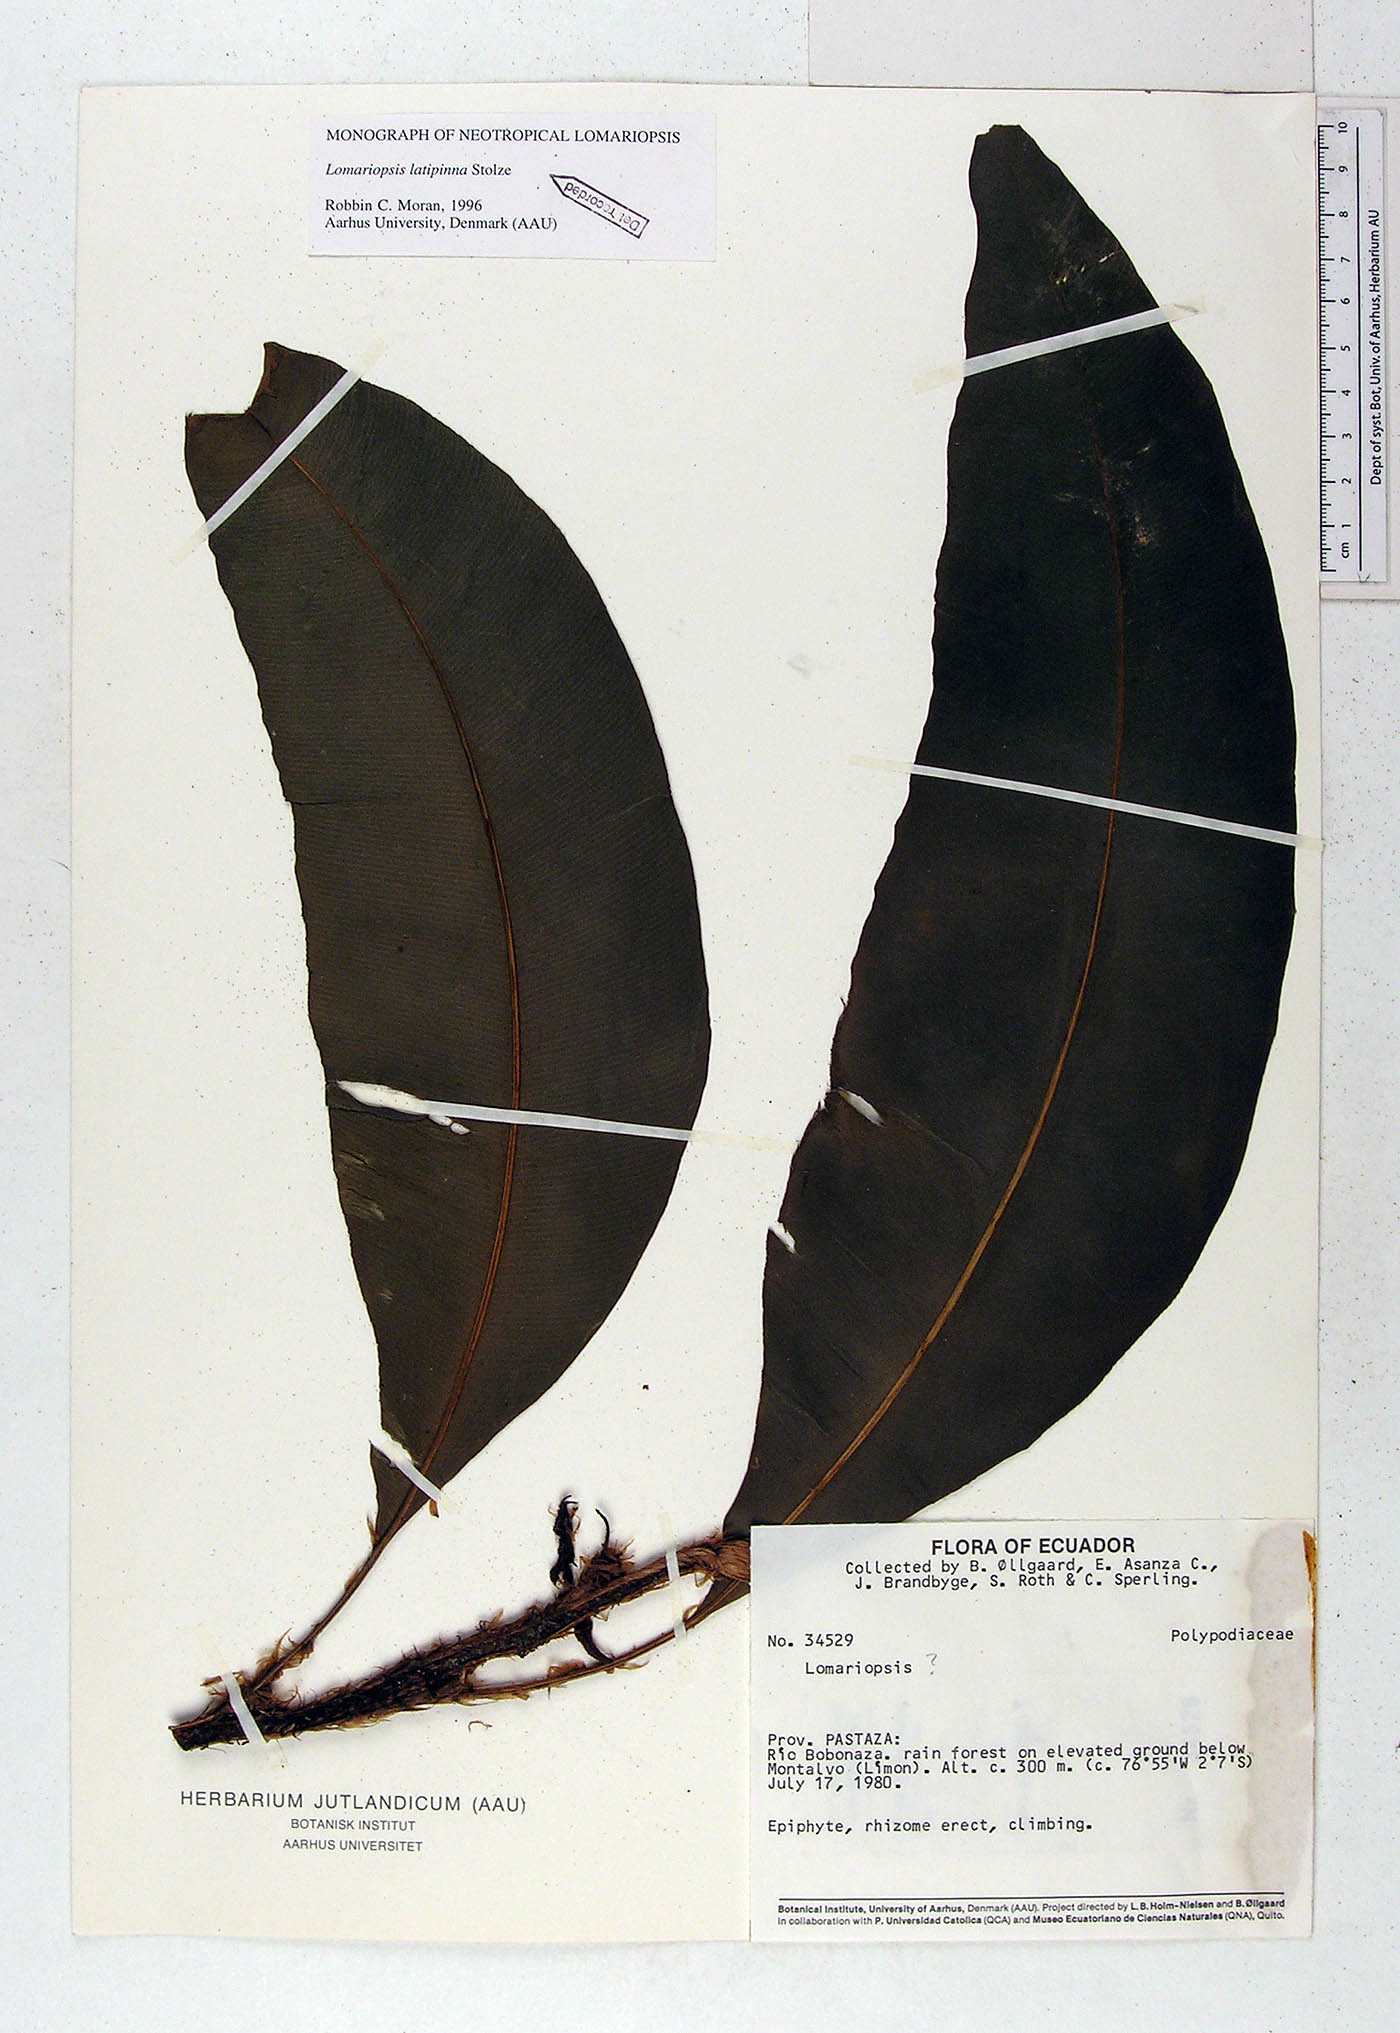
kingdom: Plantae
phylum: Tracheophyta
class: Polypodiopsida
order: Polypodiales
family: Lomariopsidaceae
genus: Lomariopsis
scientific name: Lomariopsis latipinna
